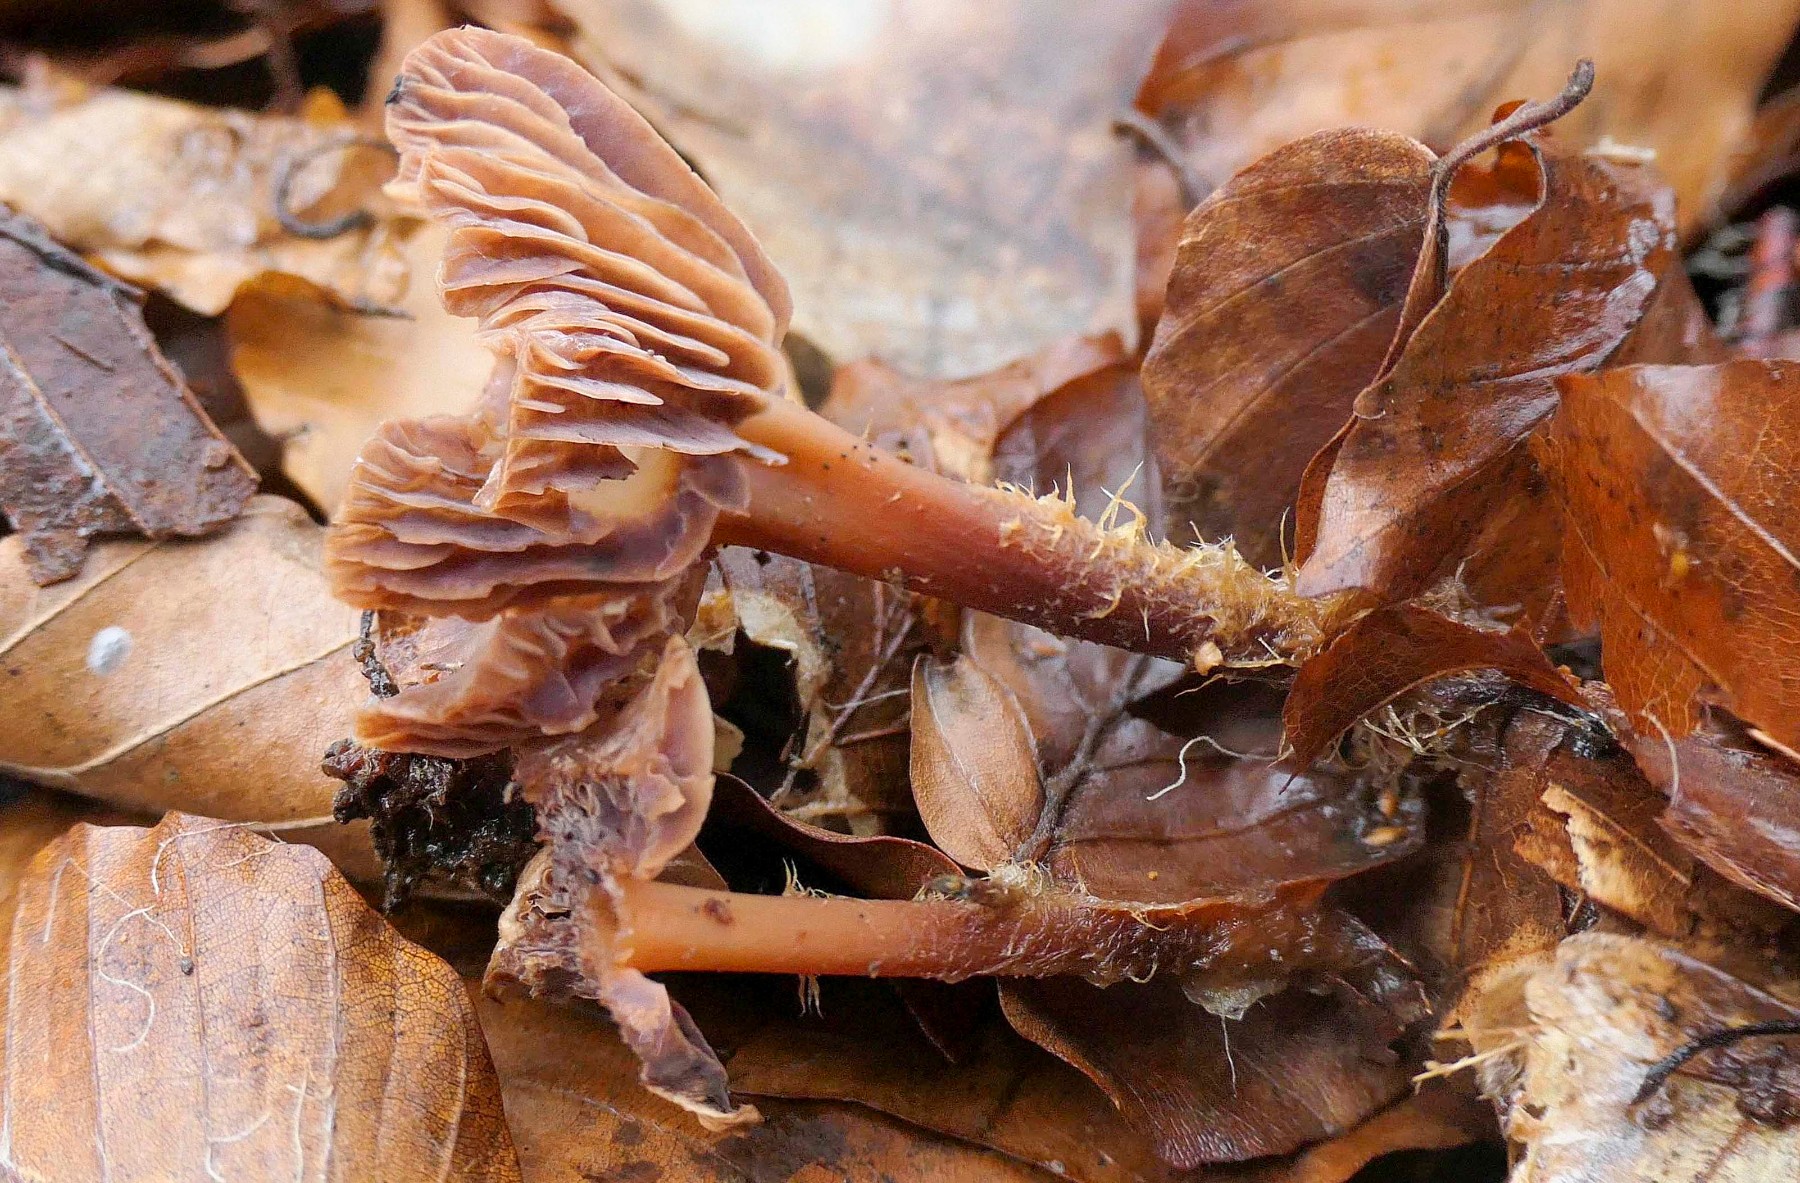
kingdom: Fungi
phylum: Basidiomycota
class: Agaricomycetes
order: Agaricales
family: Omphalotaceae
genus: Gymnopus
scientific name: Gymnopus fuscopurpureus
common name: purpurbrun fladhat
